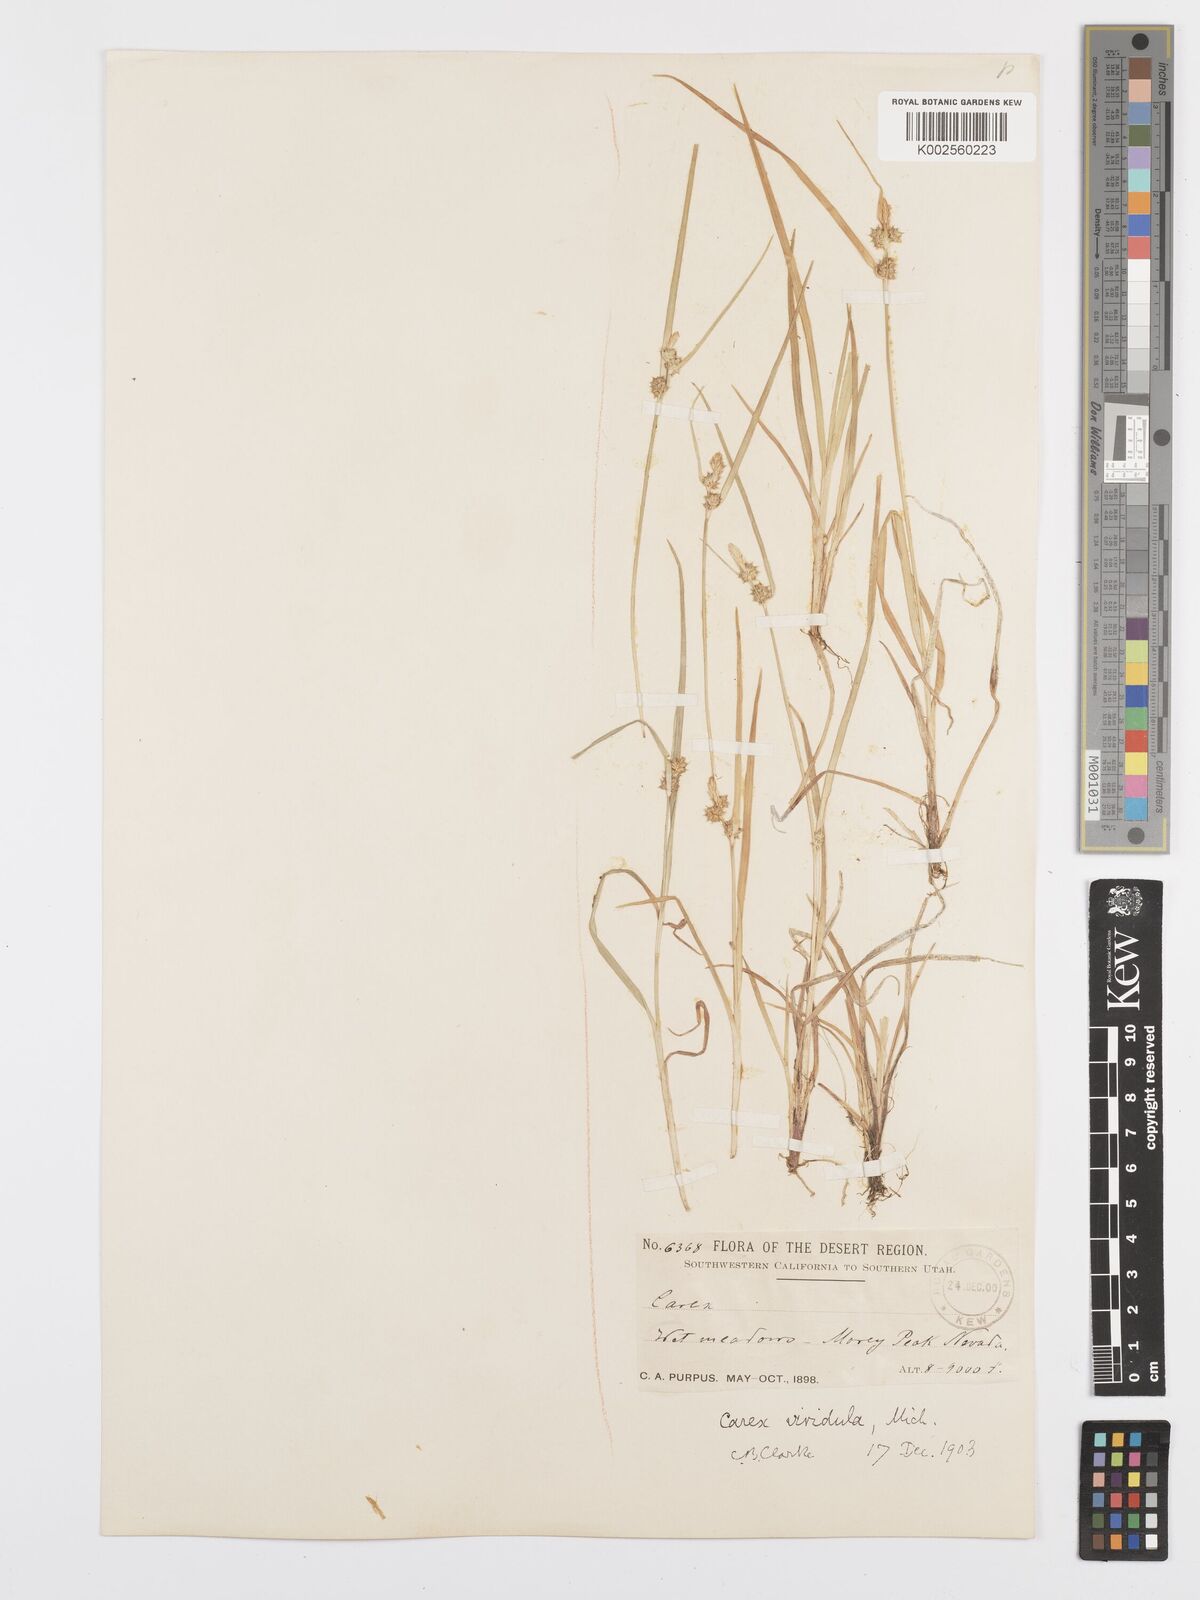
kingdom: Plantae
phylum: Tracheophyta
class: Liliopsida
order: Poales
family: Cyperaceae
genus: Carex
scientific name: Carex oederi
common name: Common & small-fruited yellow-sedge
